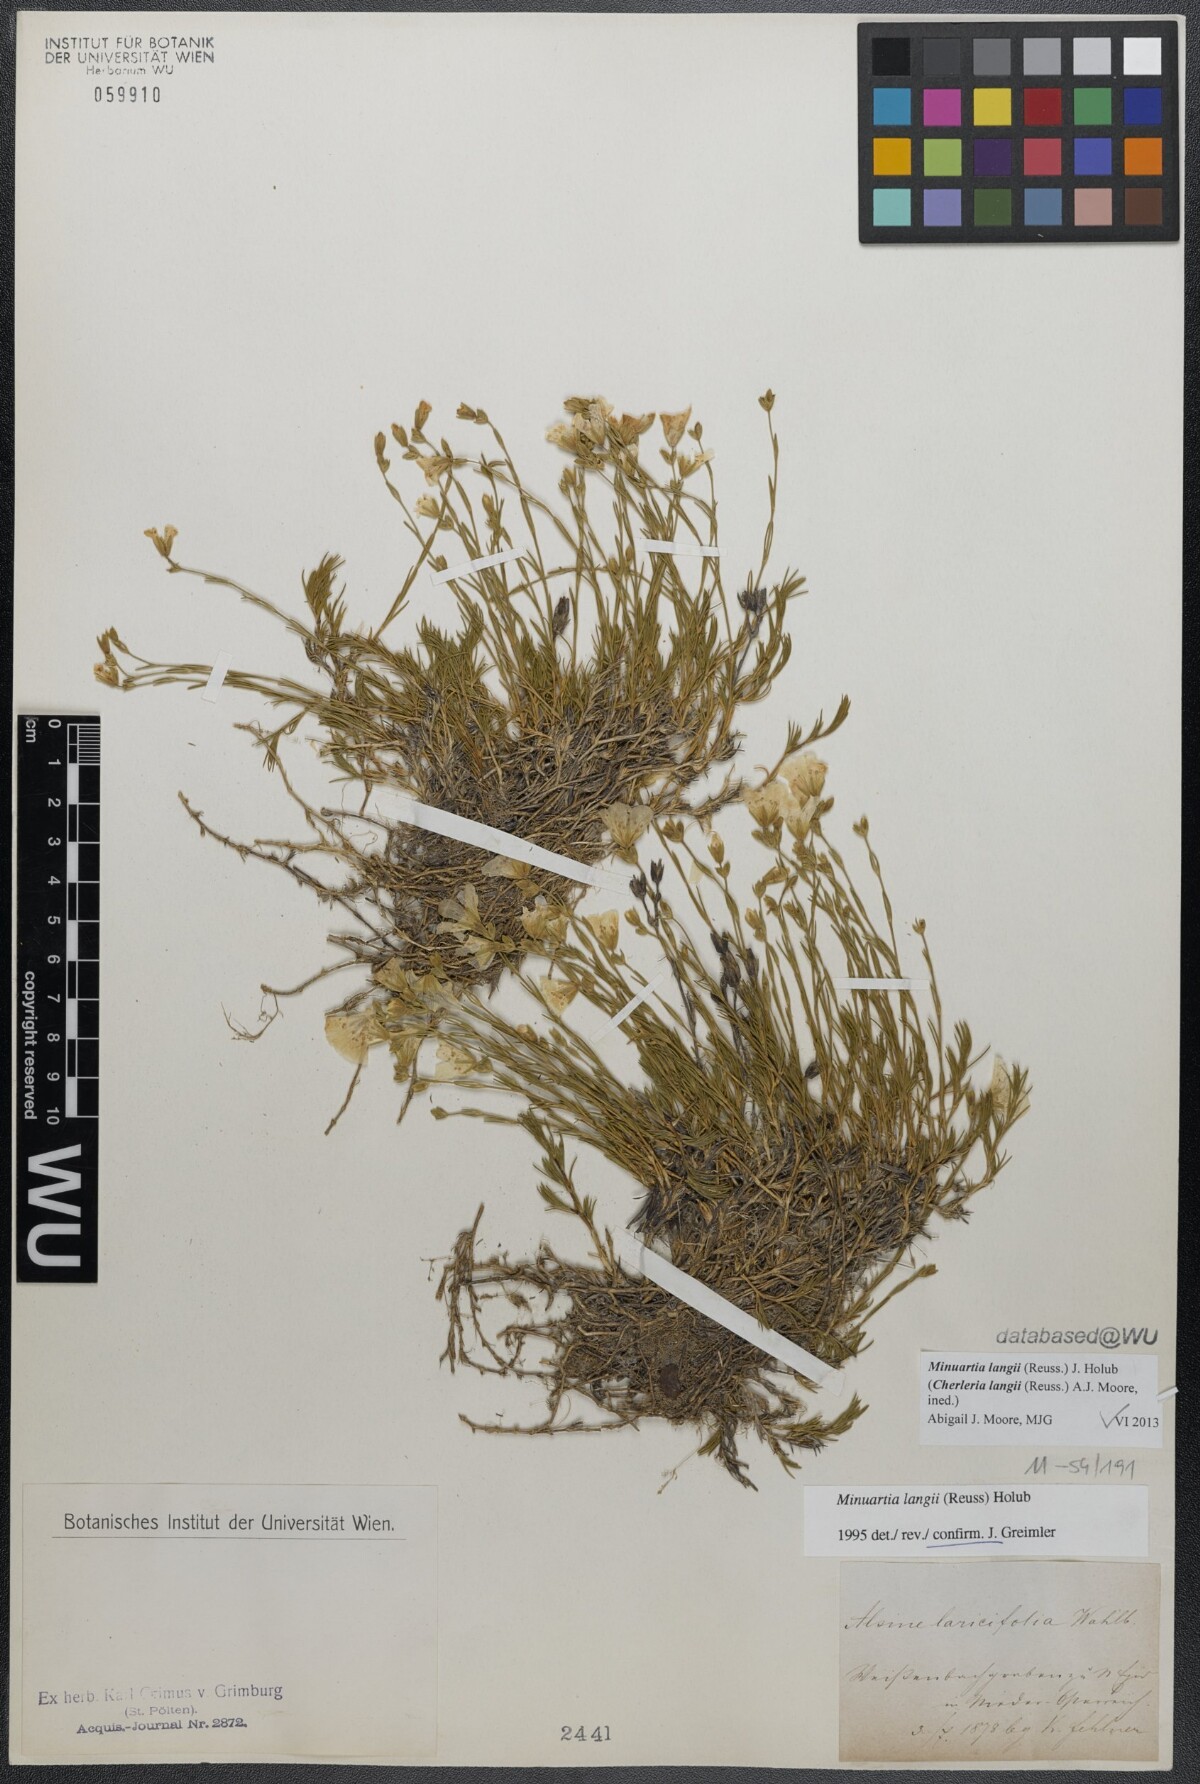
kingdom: Plantae
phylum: Tracheophyta
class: Magnoliopsida
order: Caryophyllales
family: Caryophyllaceae
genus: Cherleria
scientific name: Cherleria langii
